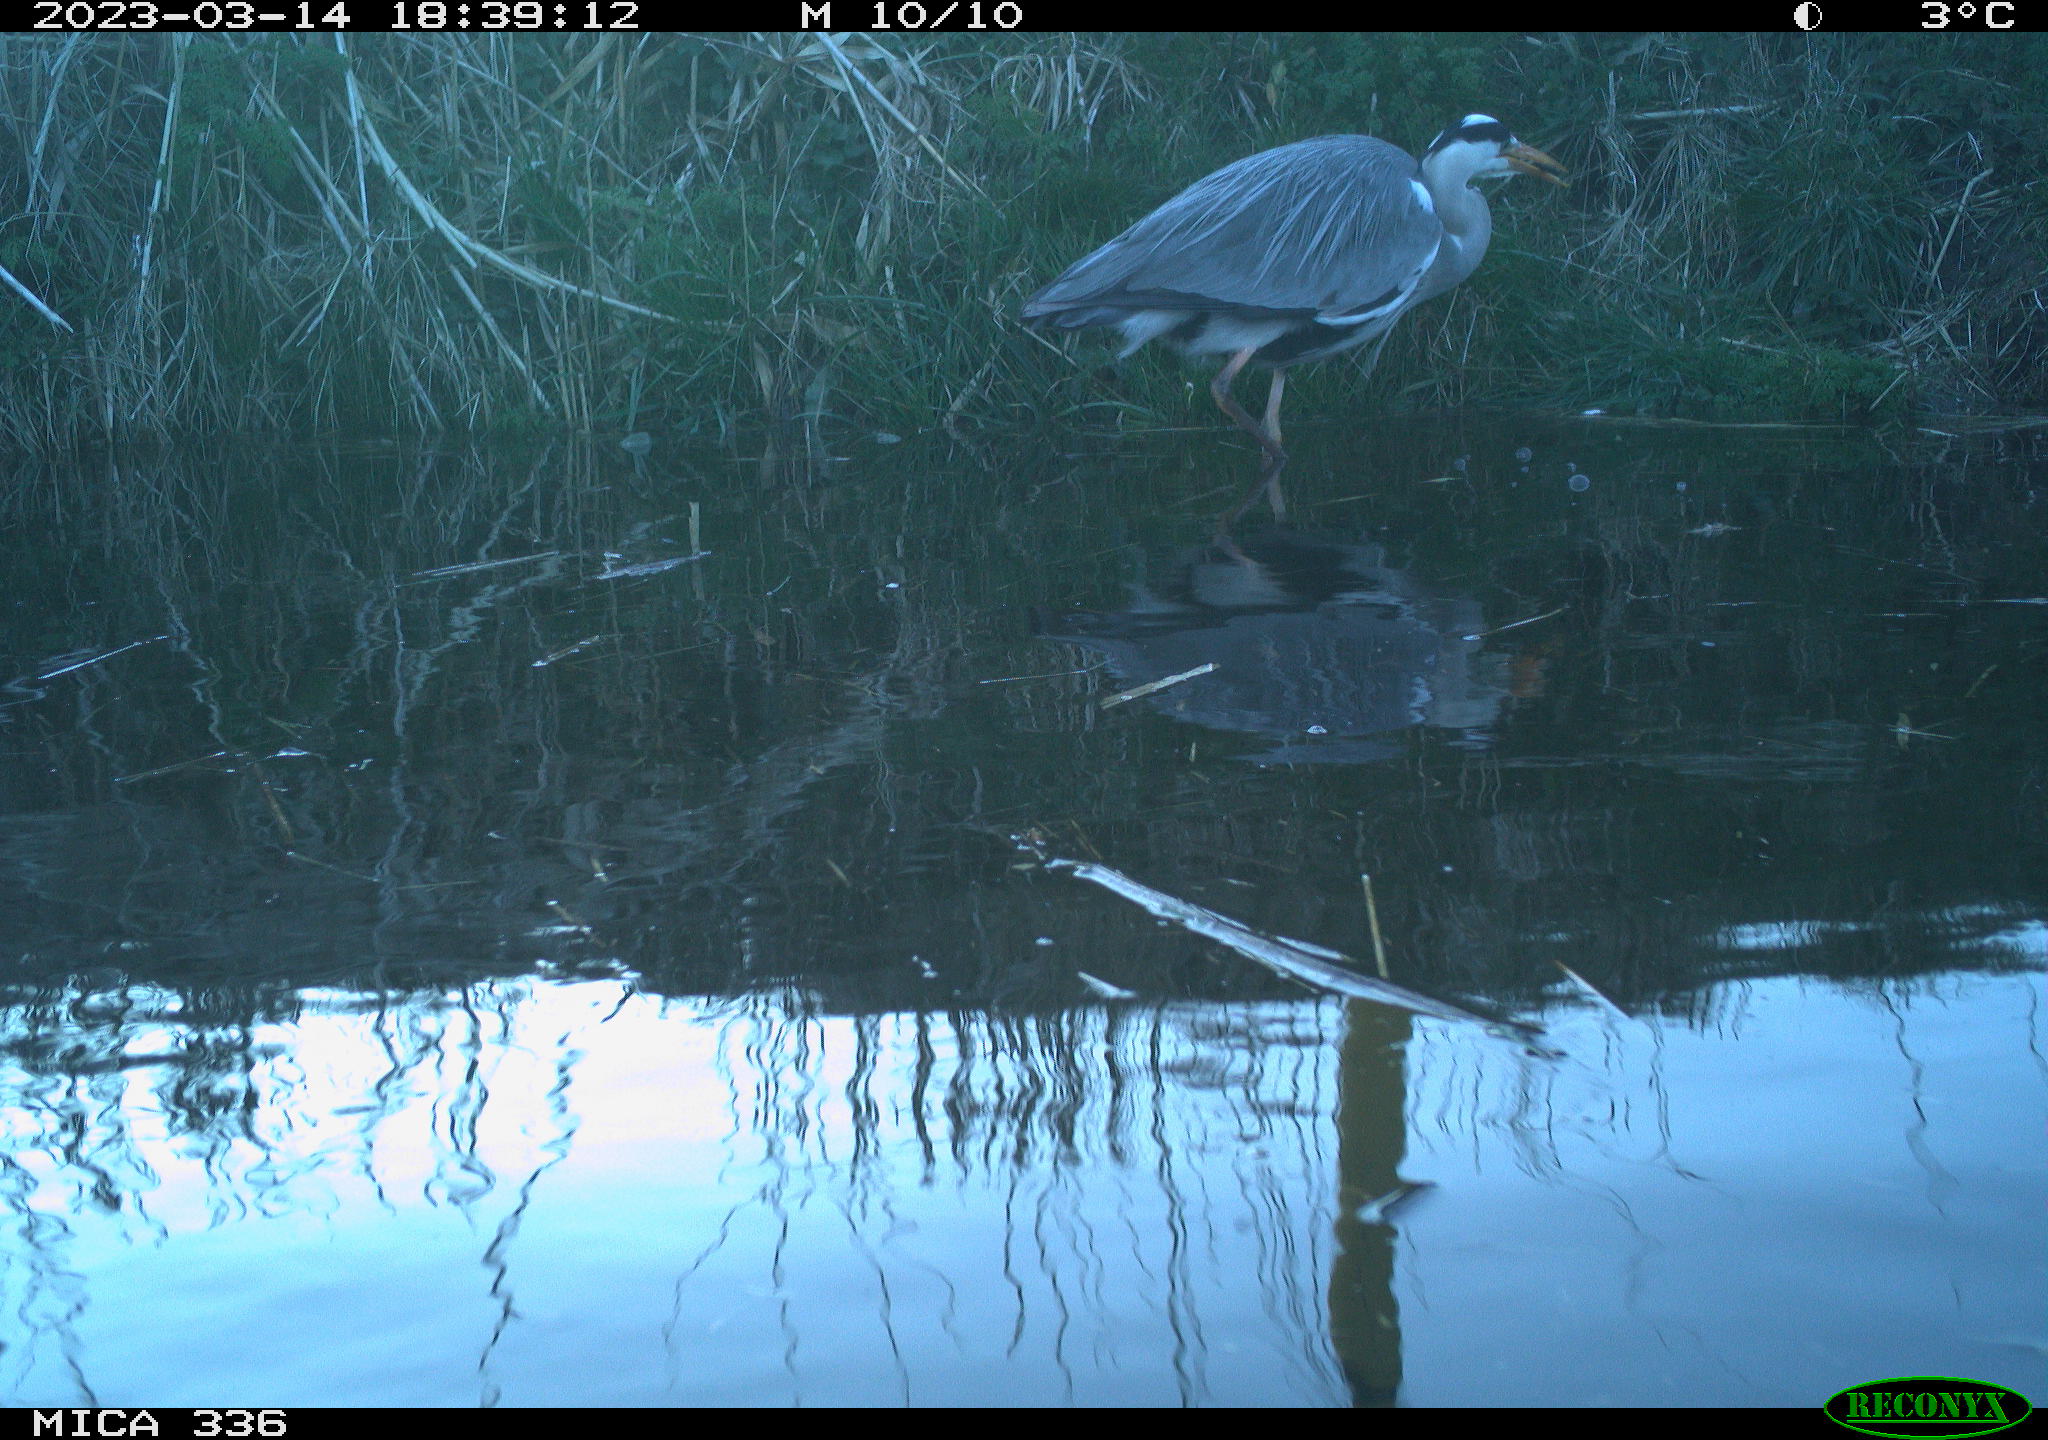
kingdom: Animalia
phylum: Chordata
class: Aves
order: Pelecaniformes
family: Ardeidae
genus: Ardea
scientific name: Ardea cinerea
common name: Grey heron
